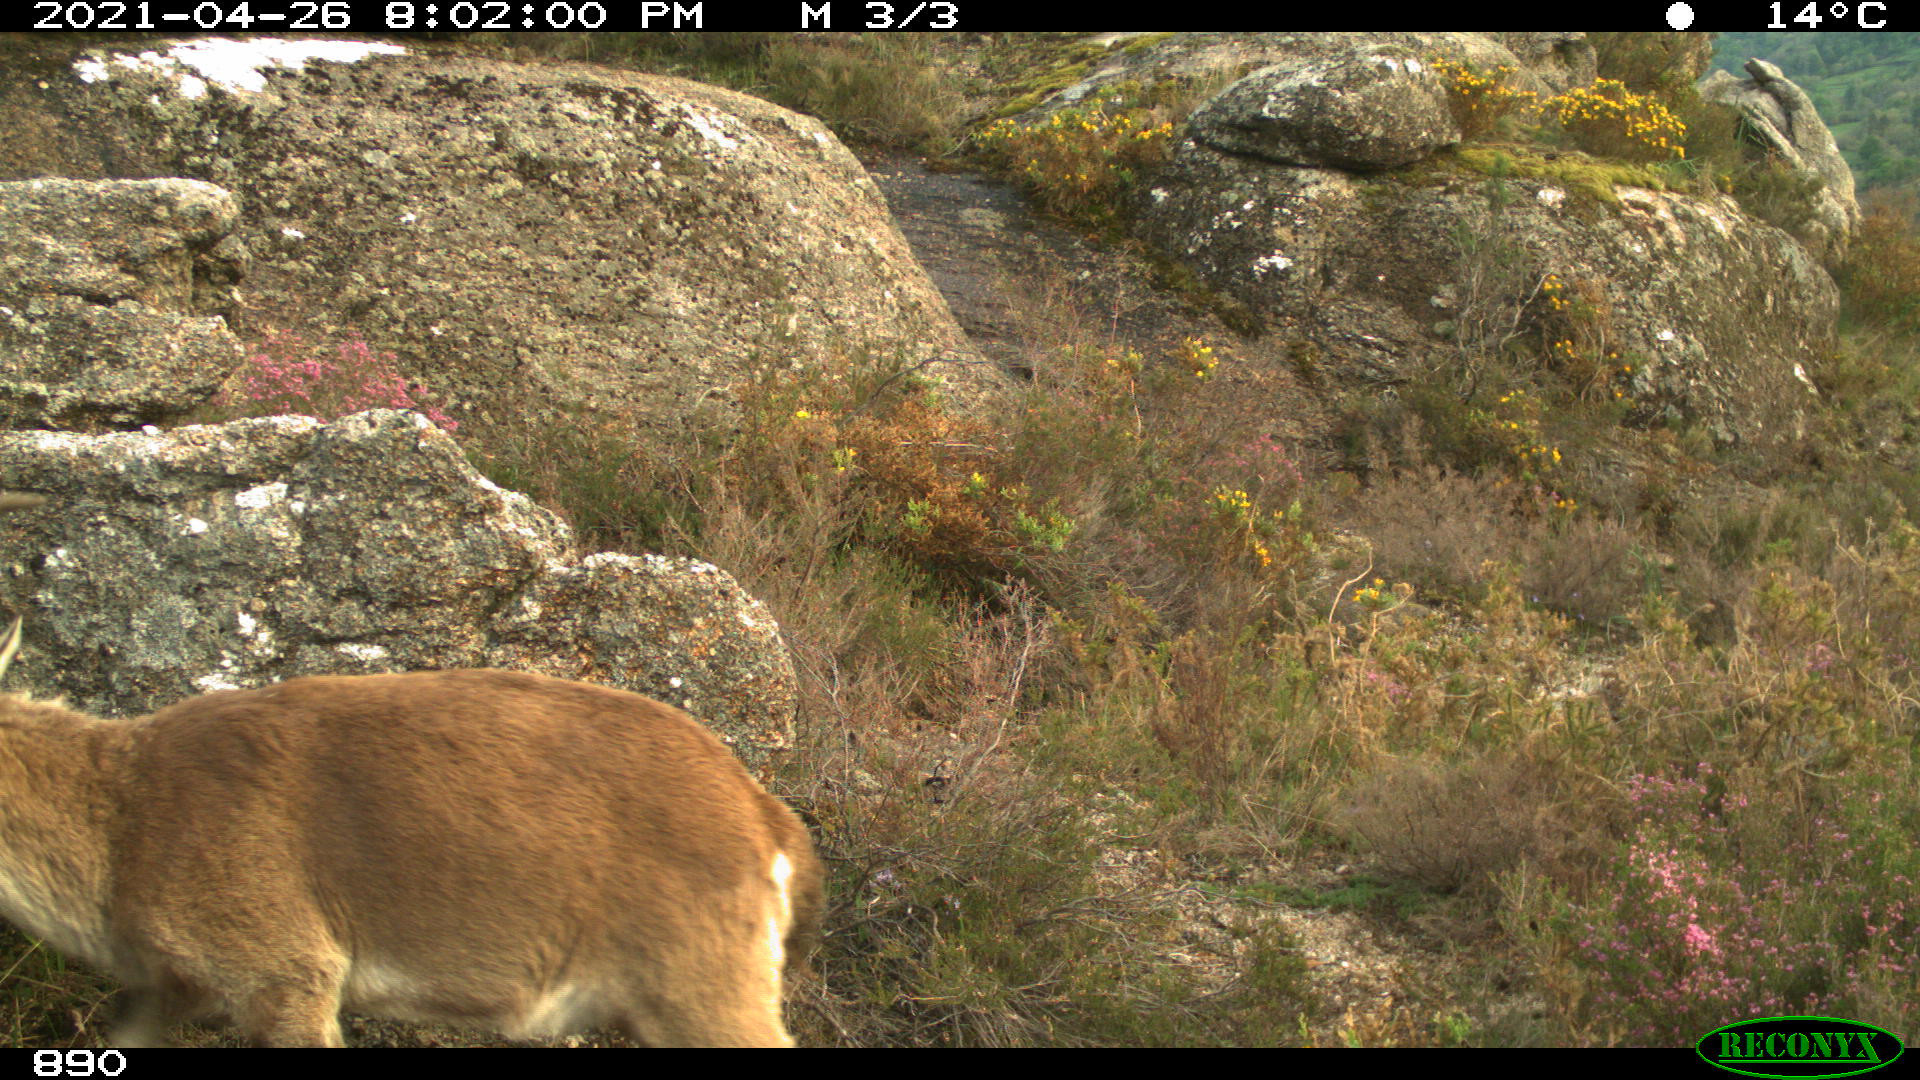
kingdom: Animalia
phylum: Chordata
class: Mammalia
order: Artiodactyla
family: Bovidae
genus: Capra
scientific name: Capra pyrenaica
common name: Spanish ibex
